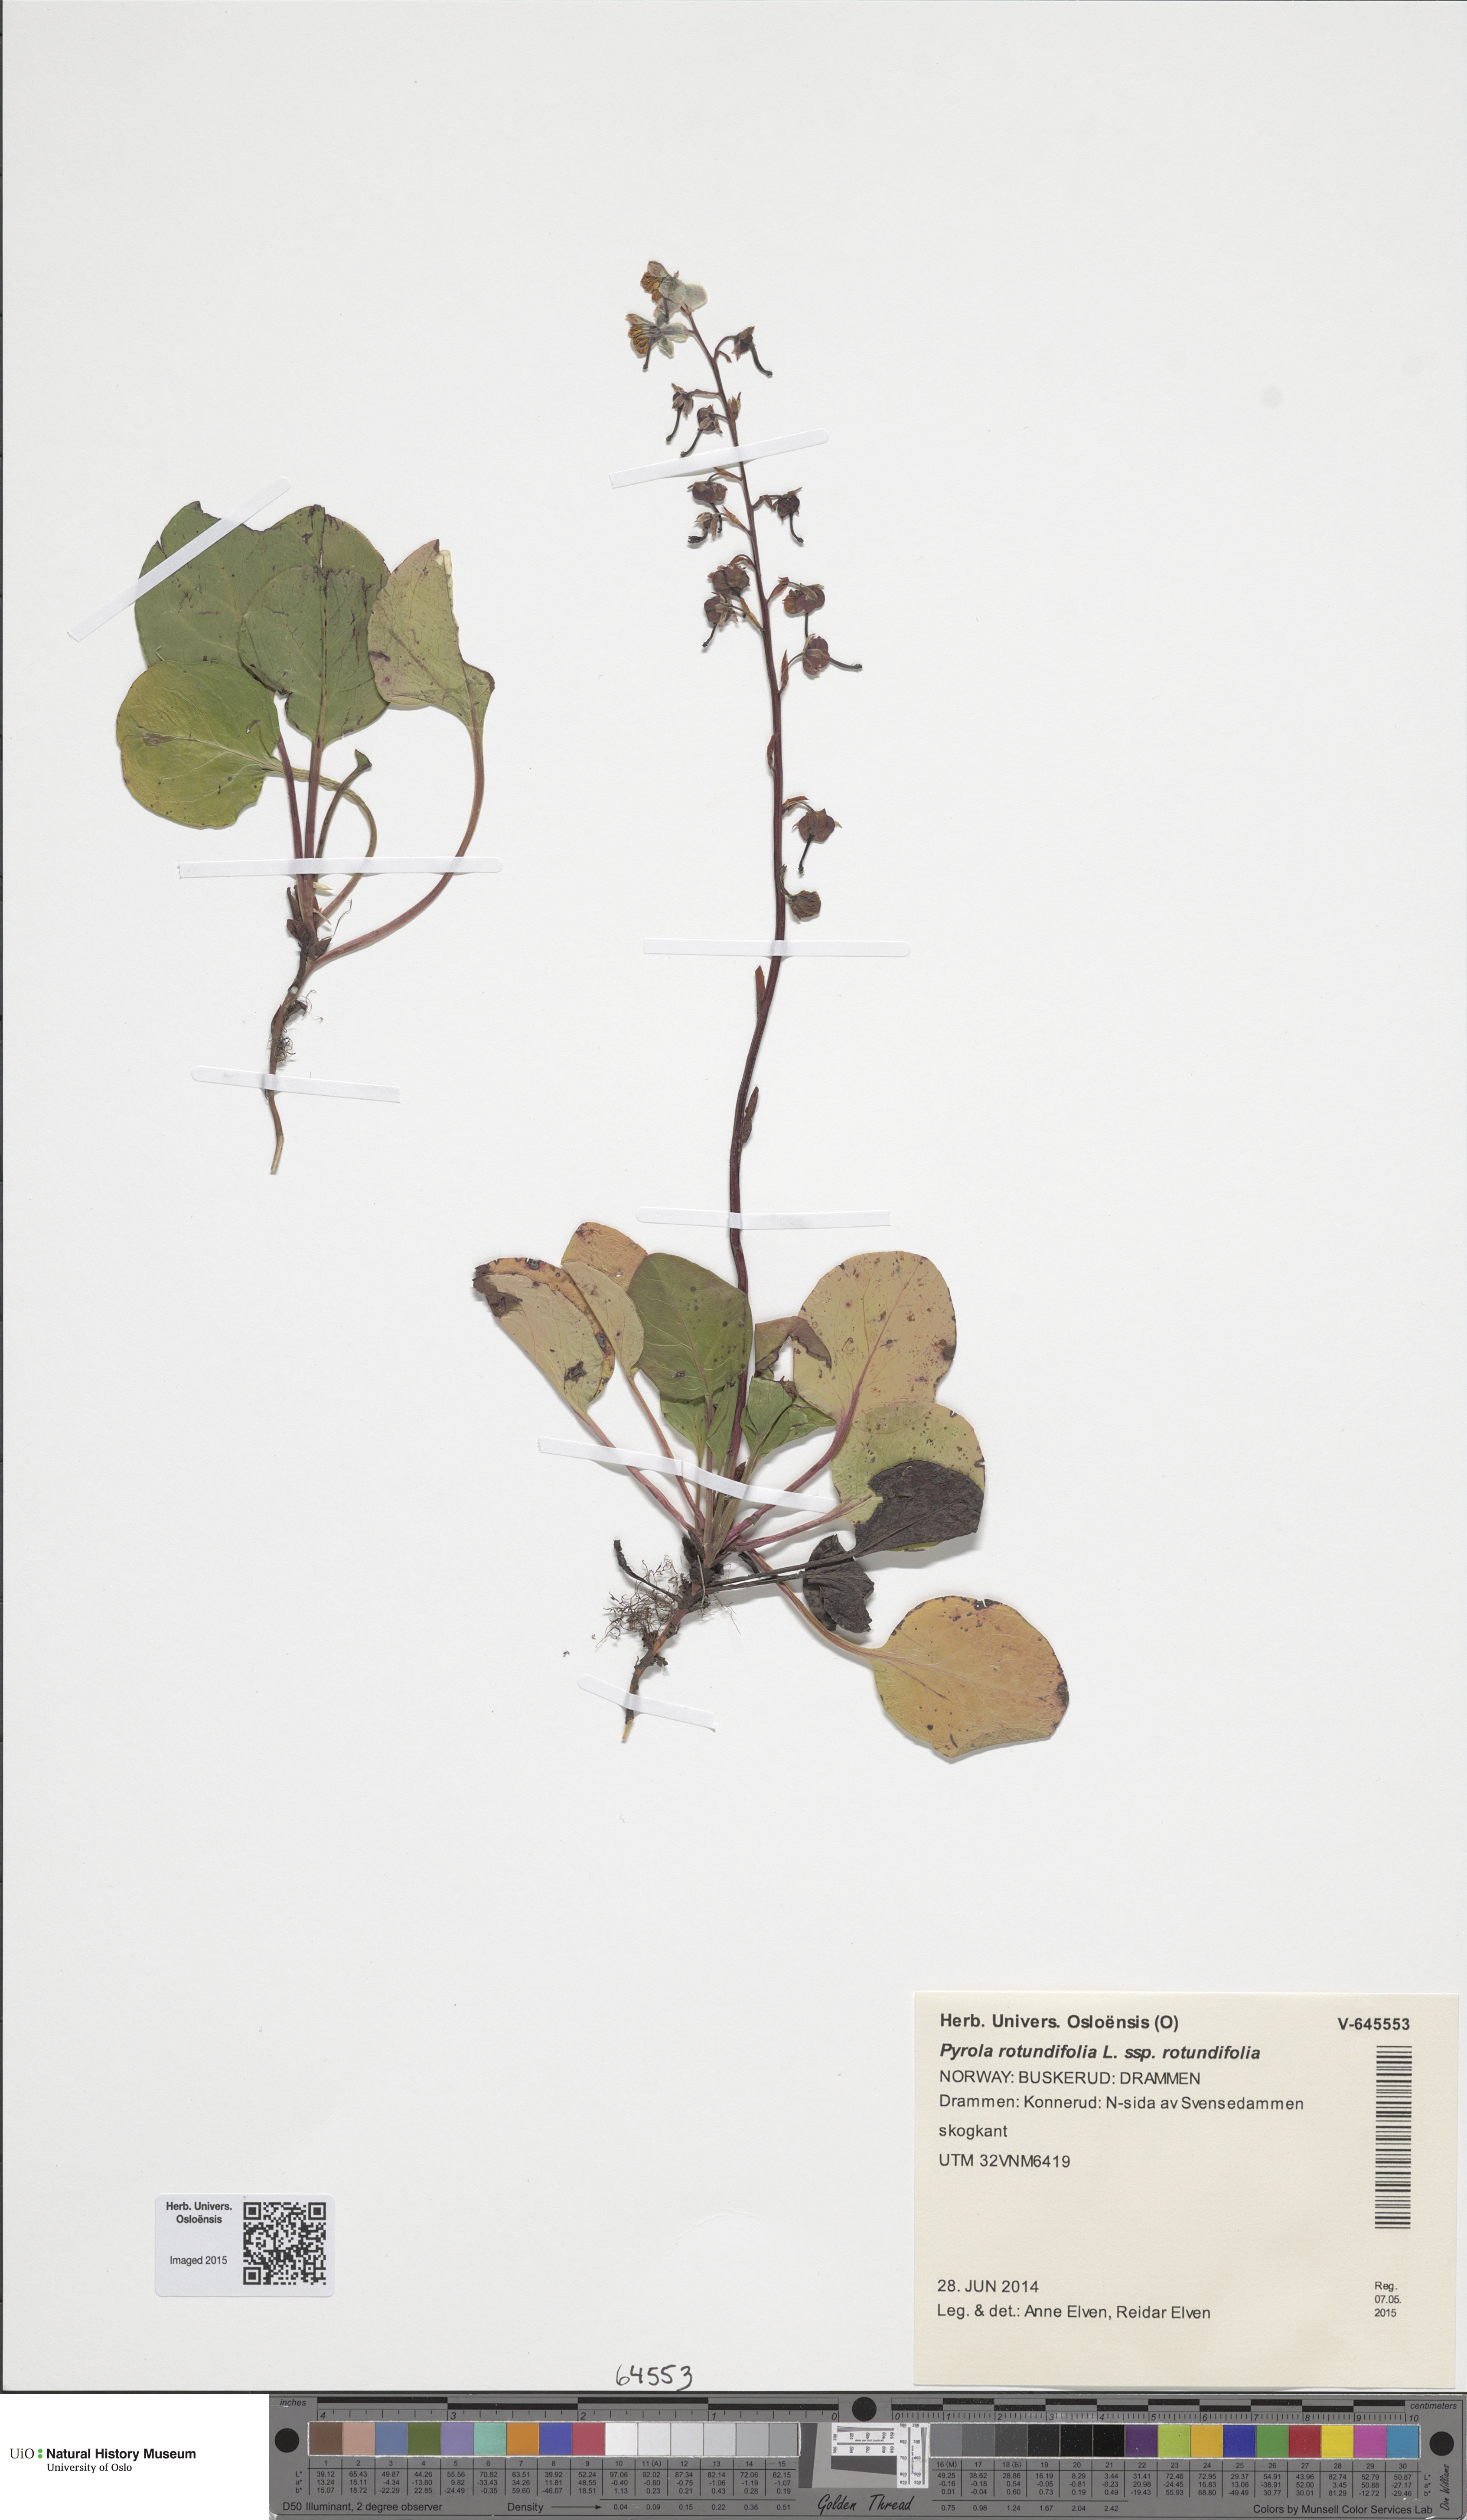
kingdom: Plantae
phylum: Tracheophyta
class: Magnoliopsida
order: Ericales
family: Ericaceae
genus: Pyrola
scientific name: Pyrola rotundifolia
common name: Round-leaved wintergreen
